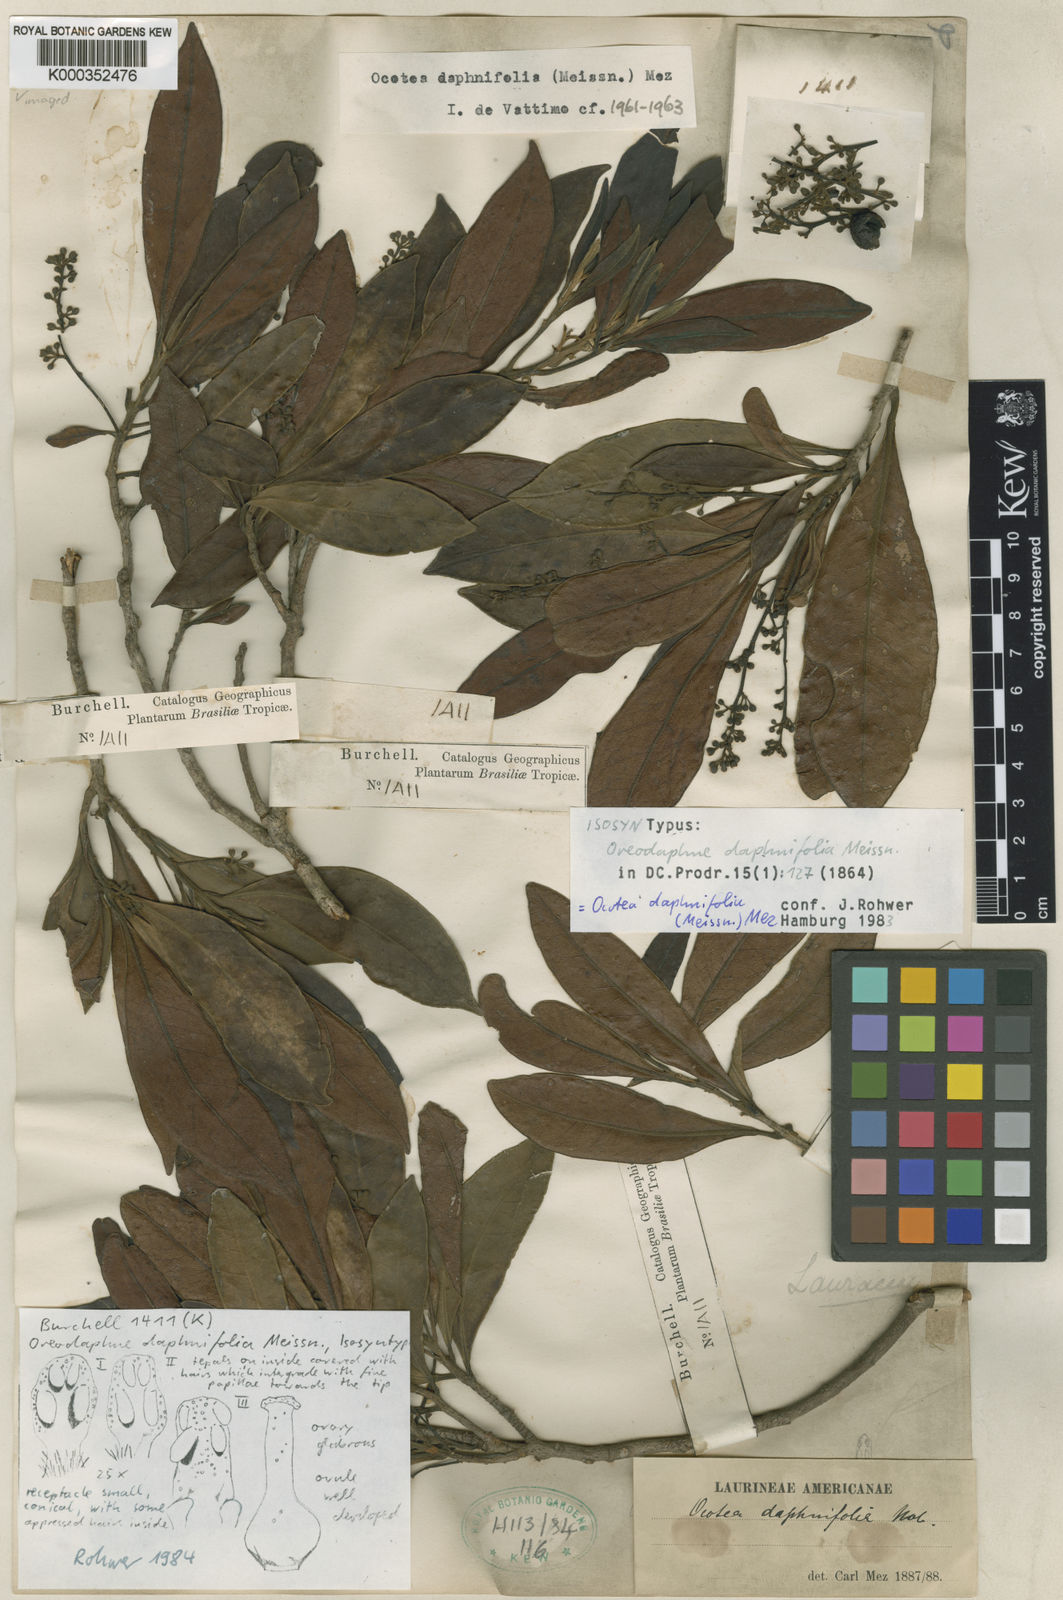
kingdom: Plantae
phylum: Tracheophyta
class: Magnoliopsida
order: Laurales
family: Lauraceae
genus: Ocotea
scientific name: Ocotea daphnifolia
